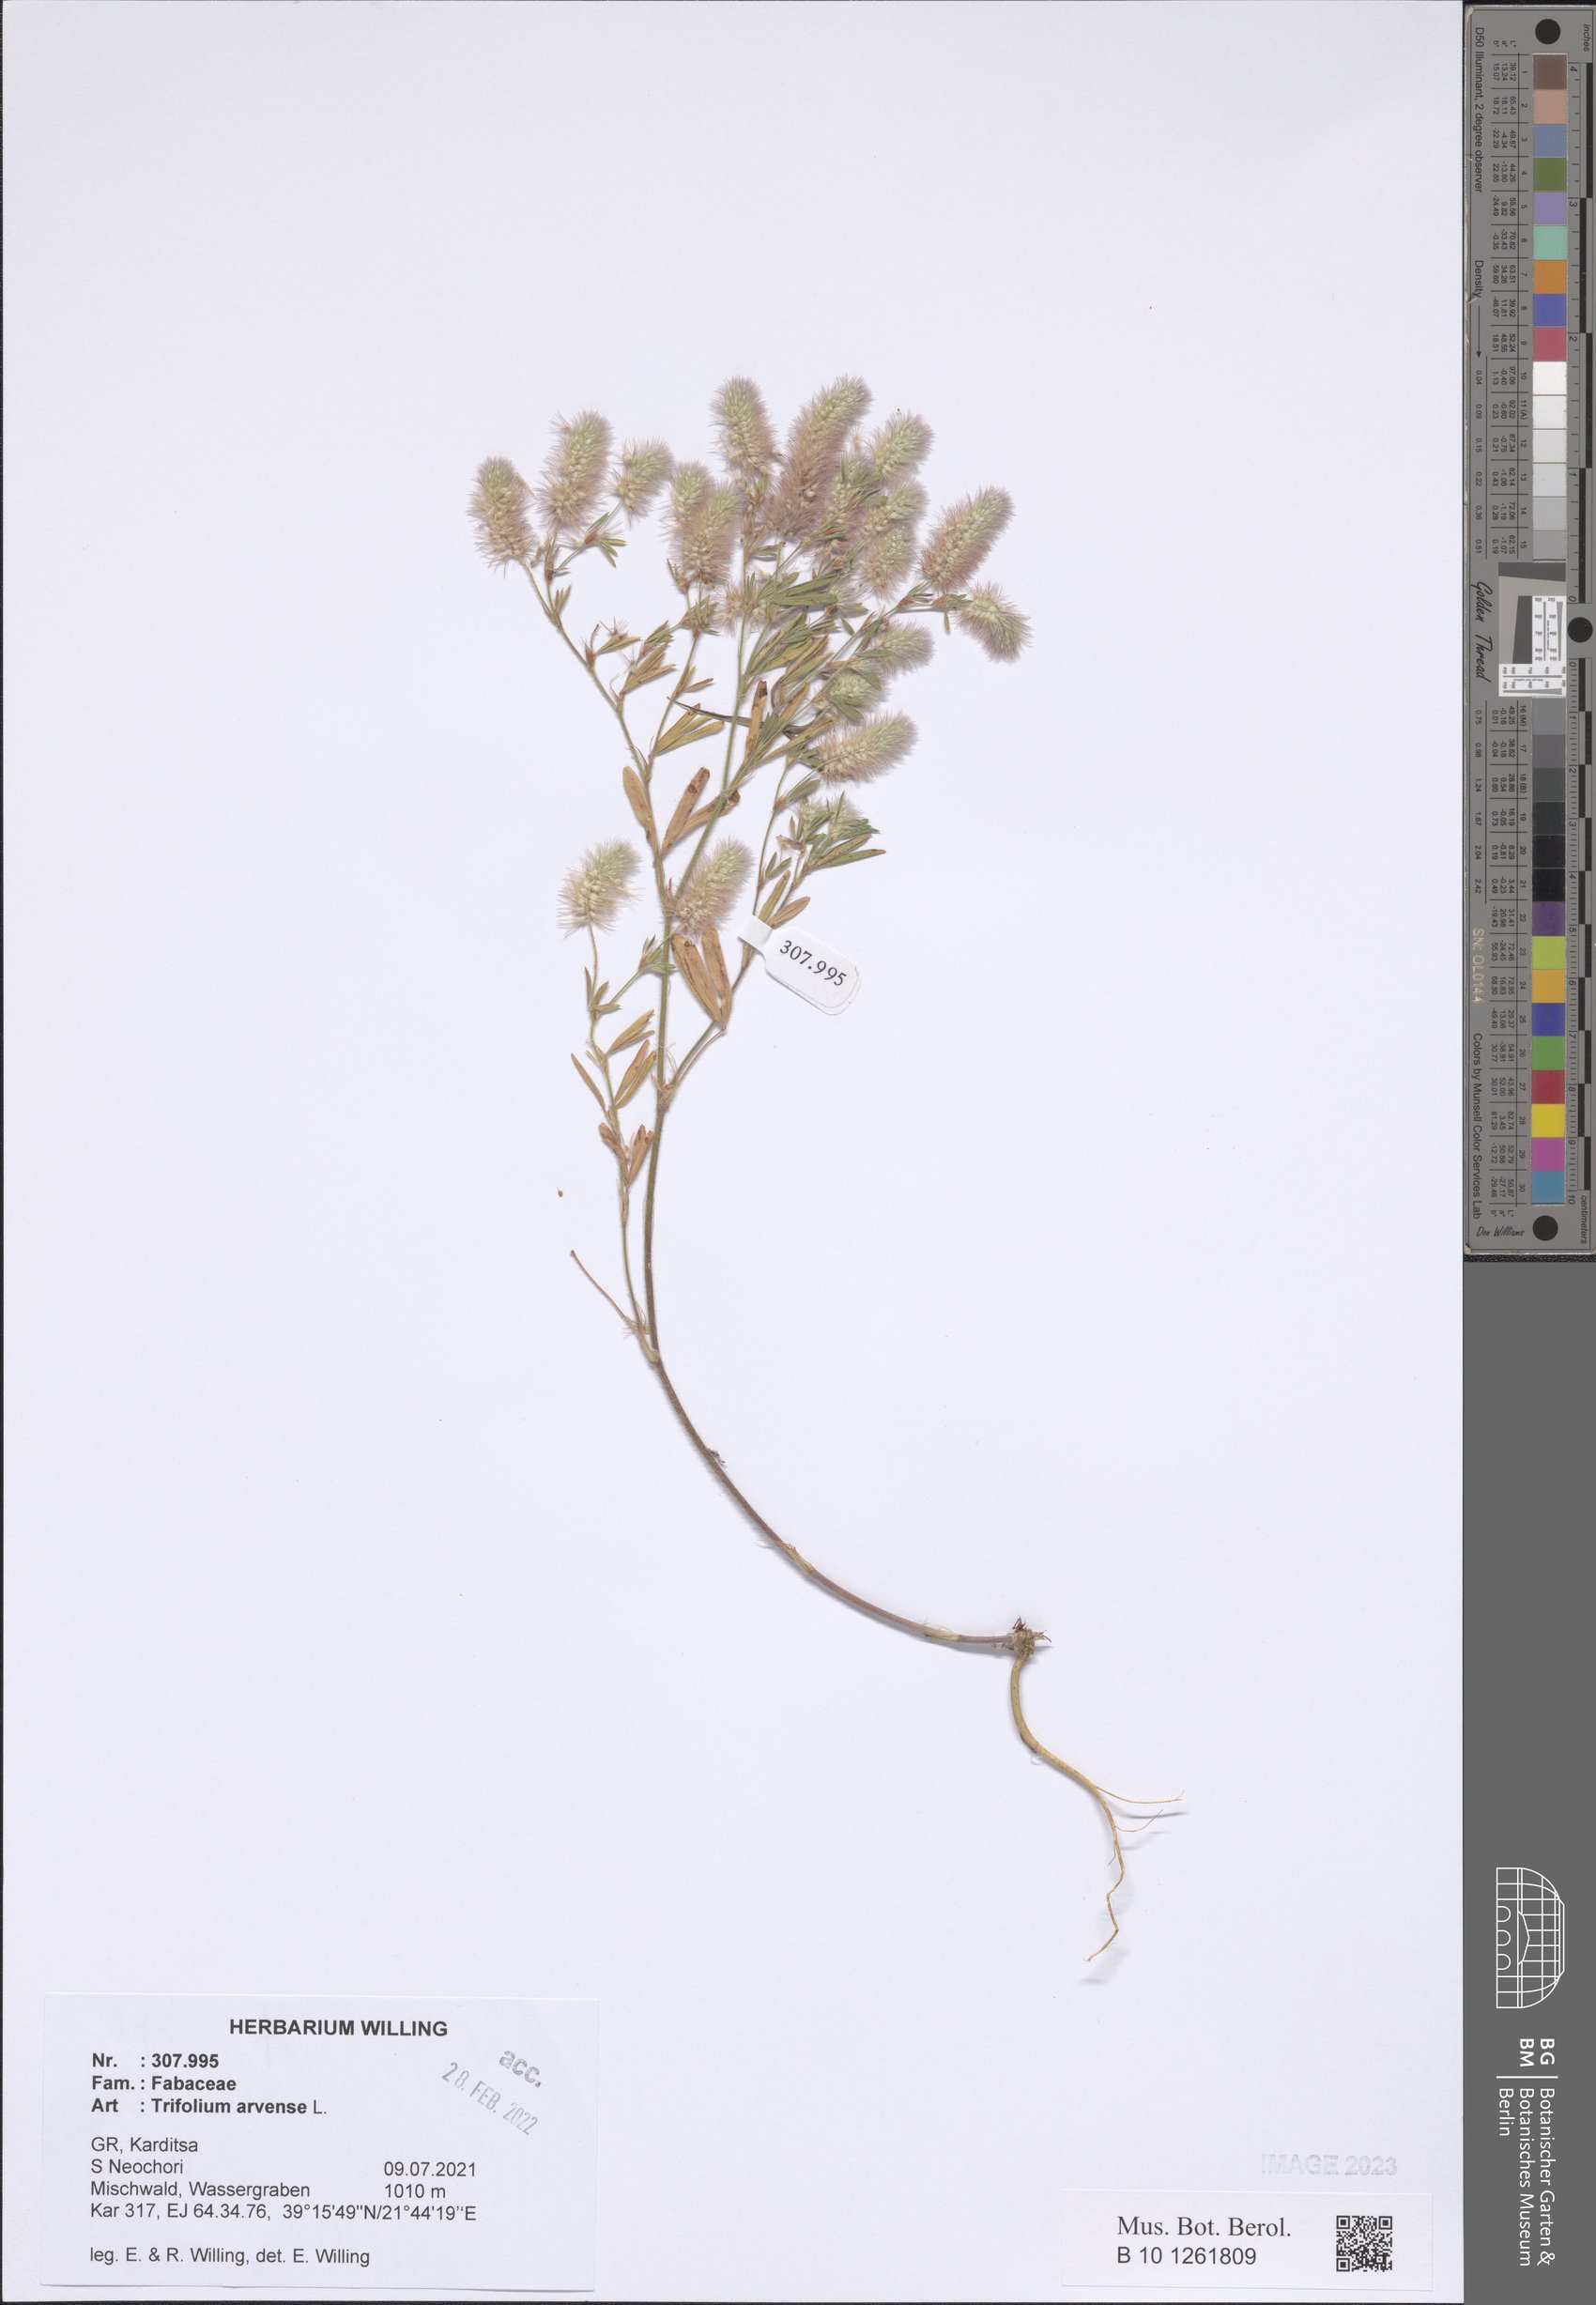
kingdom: Plantae
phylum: Tracheophyta
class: Magnoliopsida
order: Fabales
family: Fabaceae
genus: Trifolium
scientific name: Trifolium arvense
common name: Hare's-foot clover
